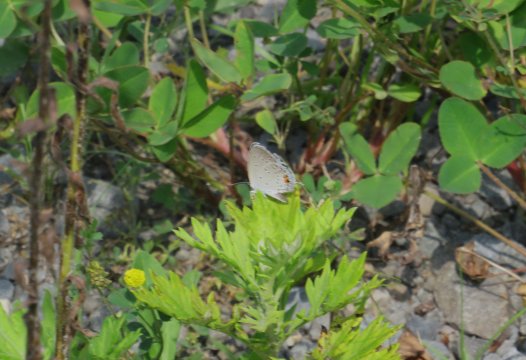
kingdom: Animalia
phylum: Arthropoda
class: Insecta
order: Lepidoptera
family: Lycaenidae
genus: Elkalyce
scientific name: Elkalyce comyntas
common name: Eastern Tailed-Blue
